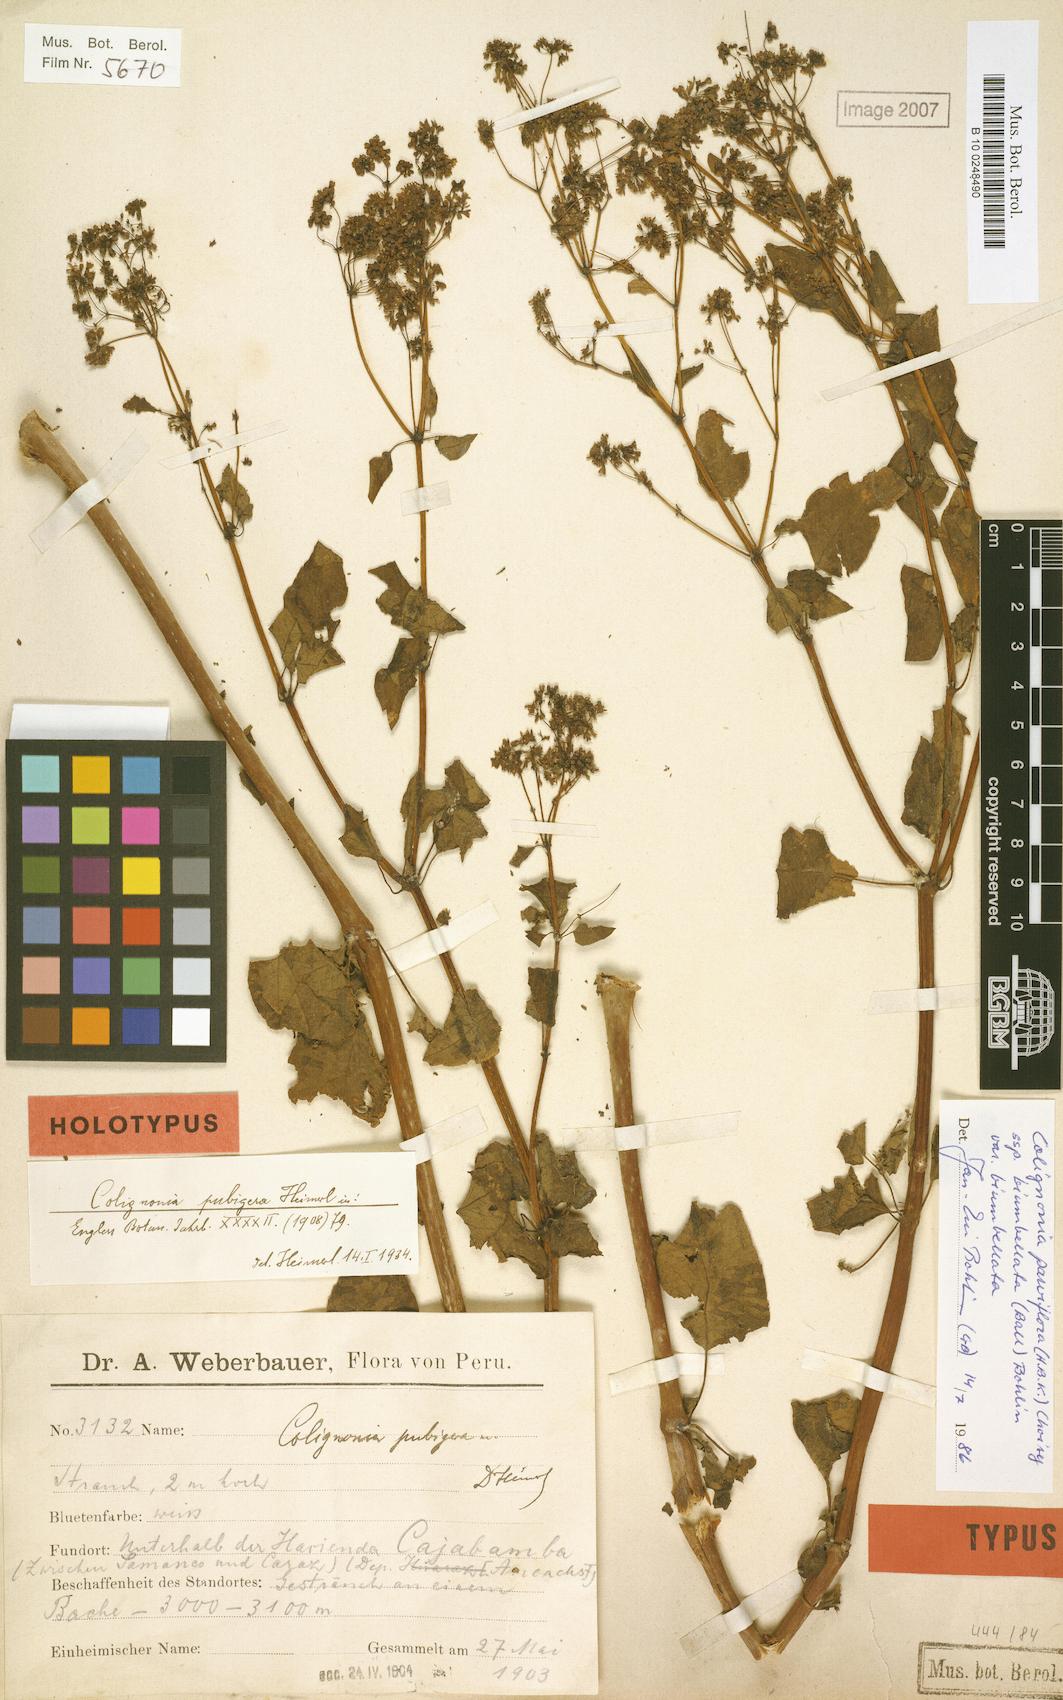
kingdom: Plantae
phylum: Tracheophyta
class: Magnoliopsida
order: Caryophyllales
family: Nyctaginaceae
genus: Colignonia
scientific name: Colignonia parviflora
